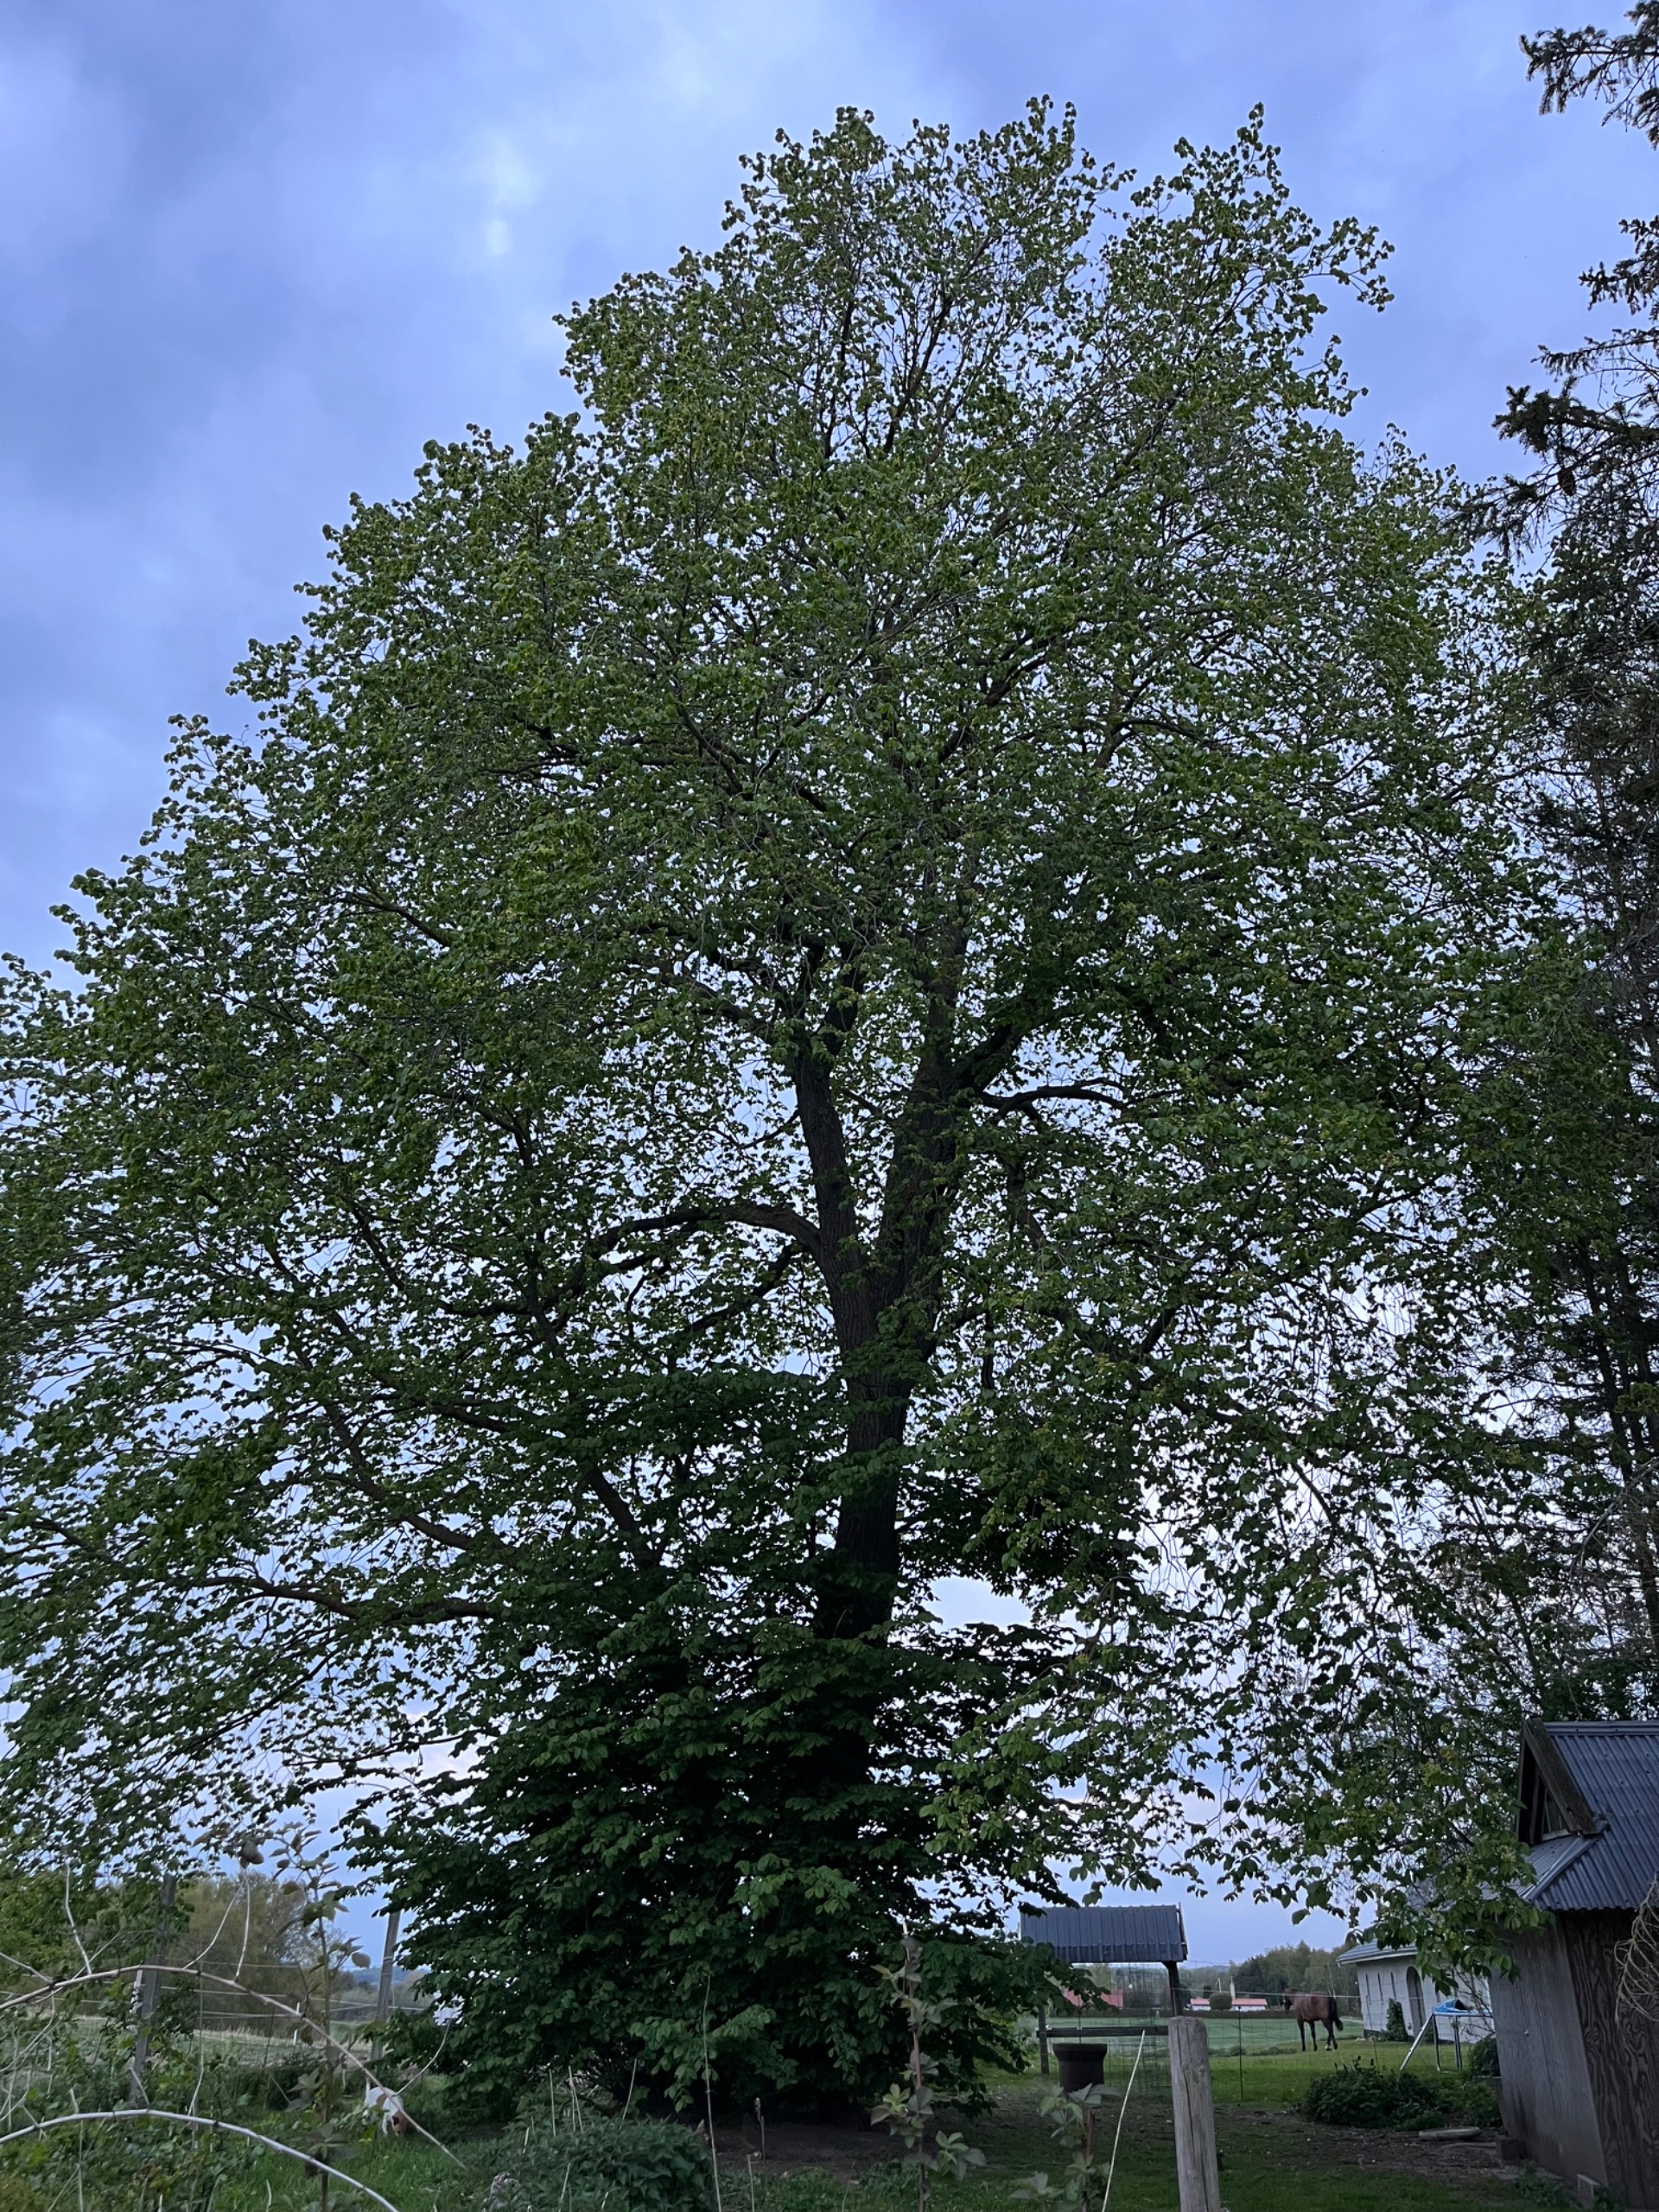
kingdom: Plantae
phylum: Tracheophyta
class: Magnoliopsida
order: Rosales
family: Ulmaceae
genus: Ulmus
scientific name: Ulmus hollandica
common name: Hollandsk elm
